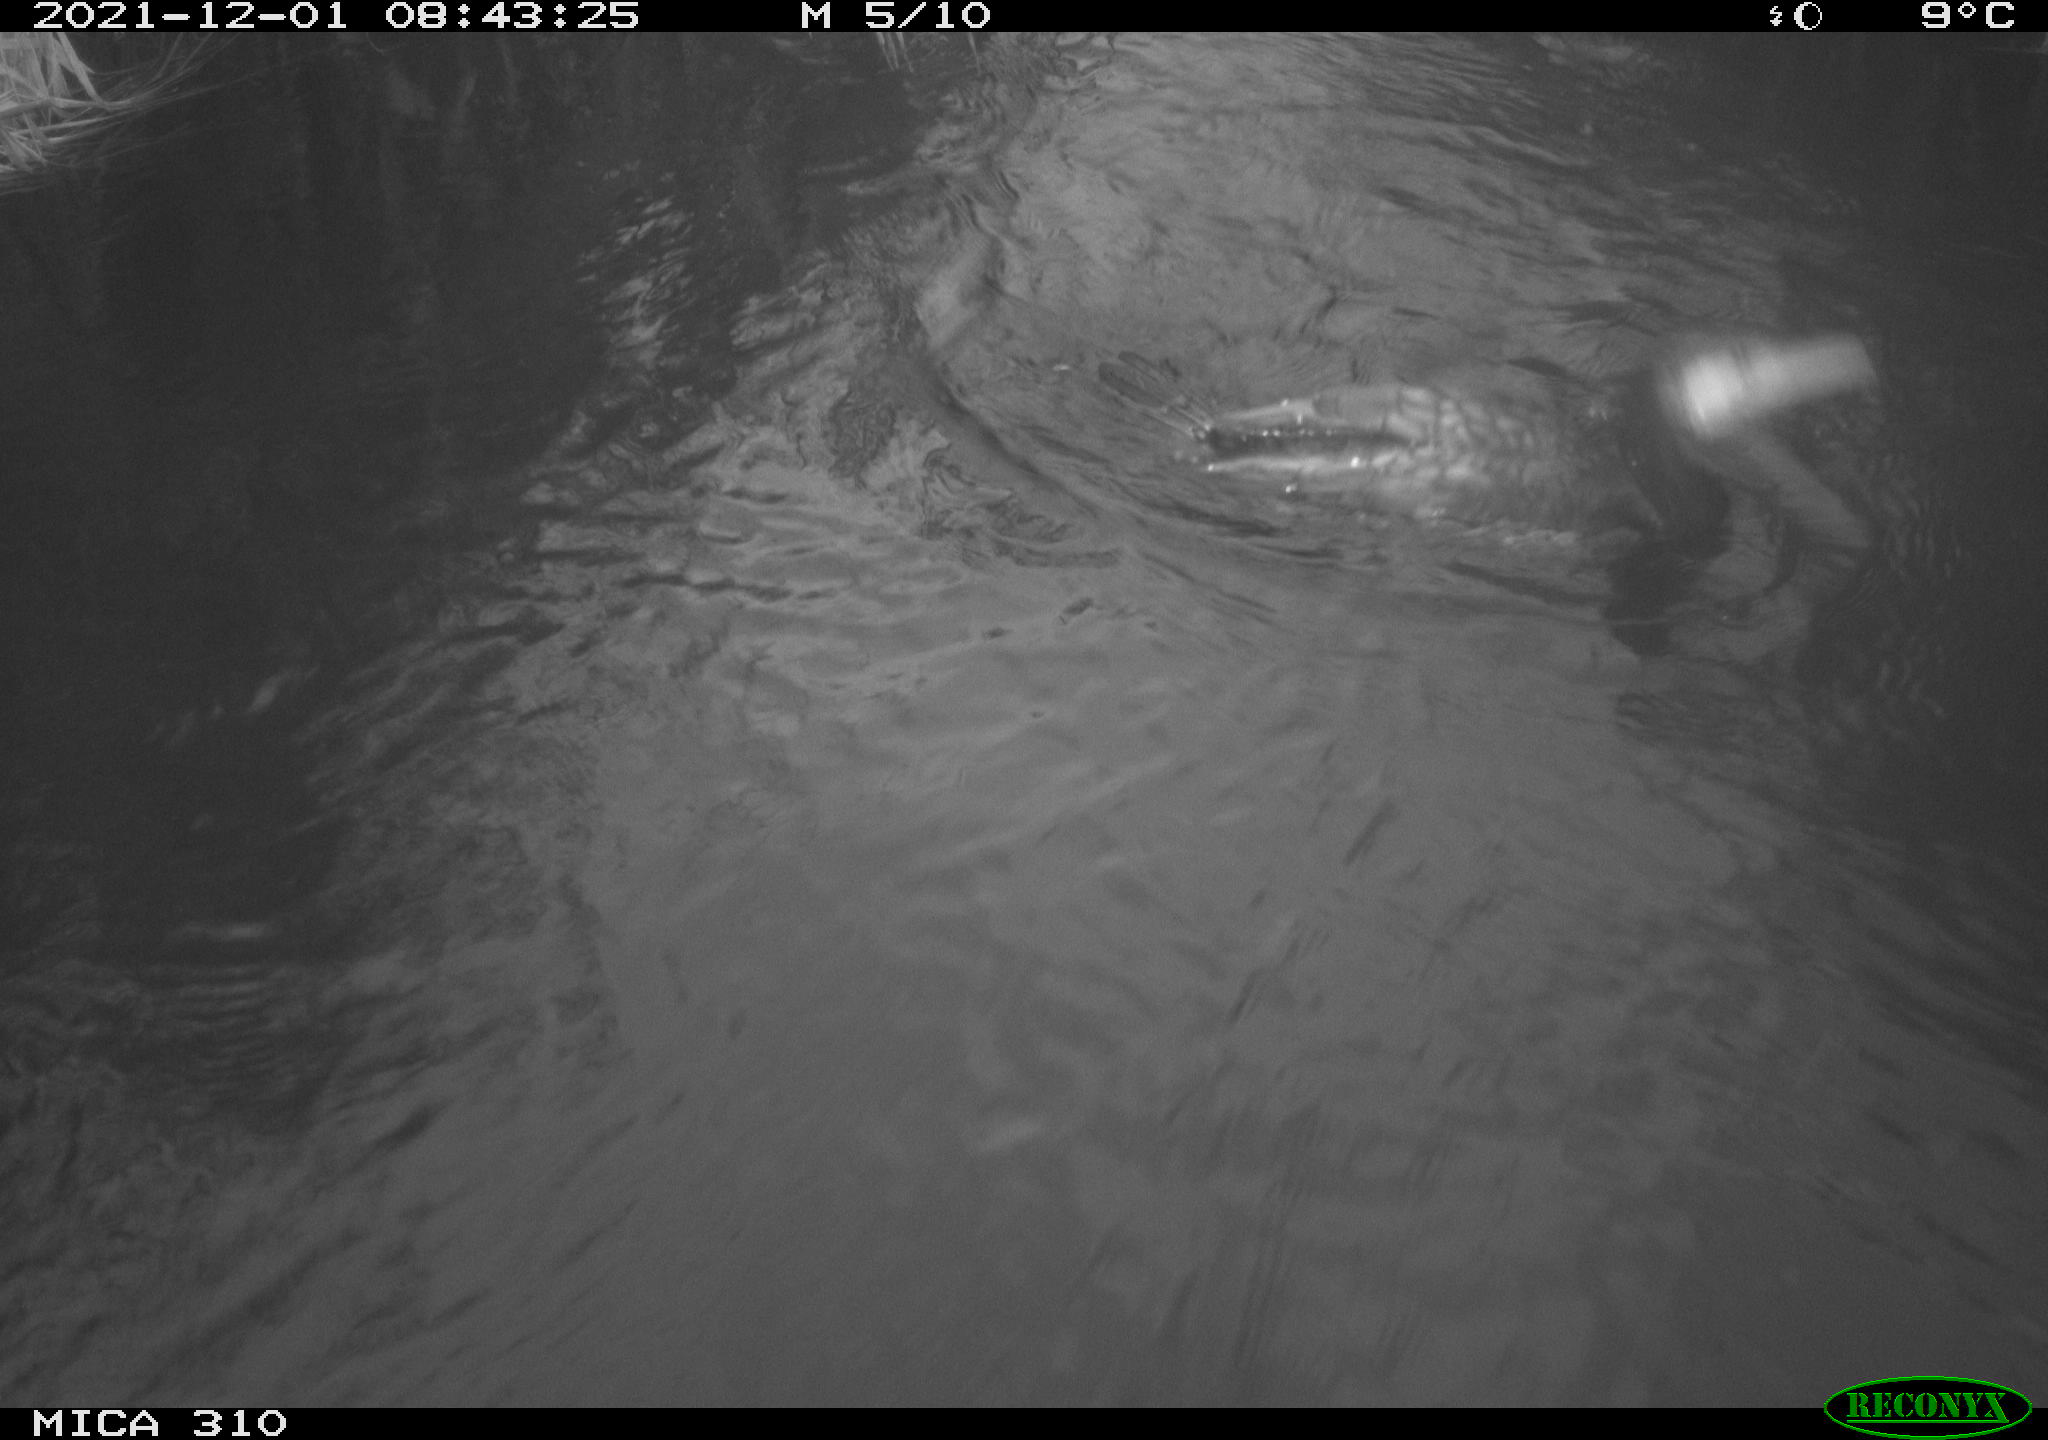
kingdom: Animalia
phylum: Chordata
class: Aves
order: Suliformes
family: Phalacrocoracidae
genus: Phalacrocorax
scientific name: Phalacrocorax carbo
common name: Great cormorant
